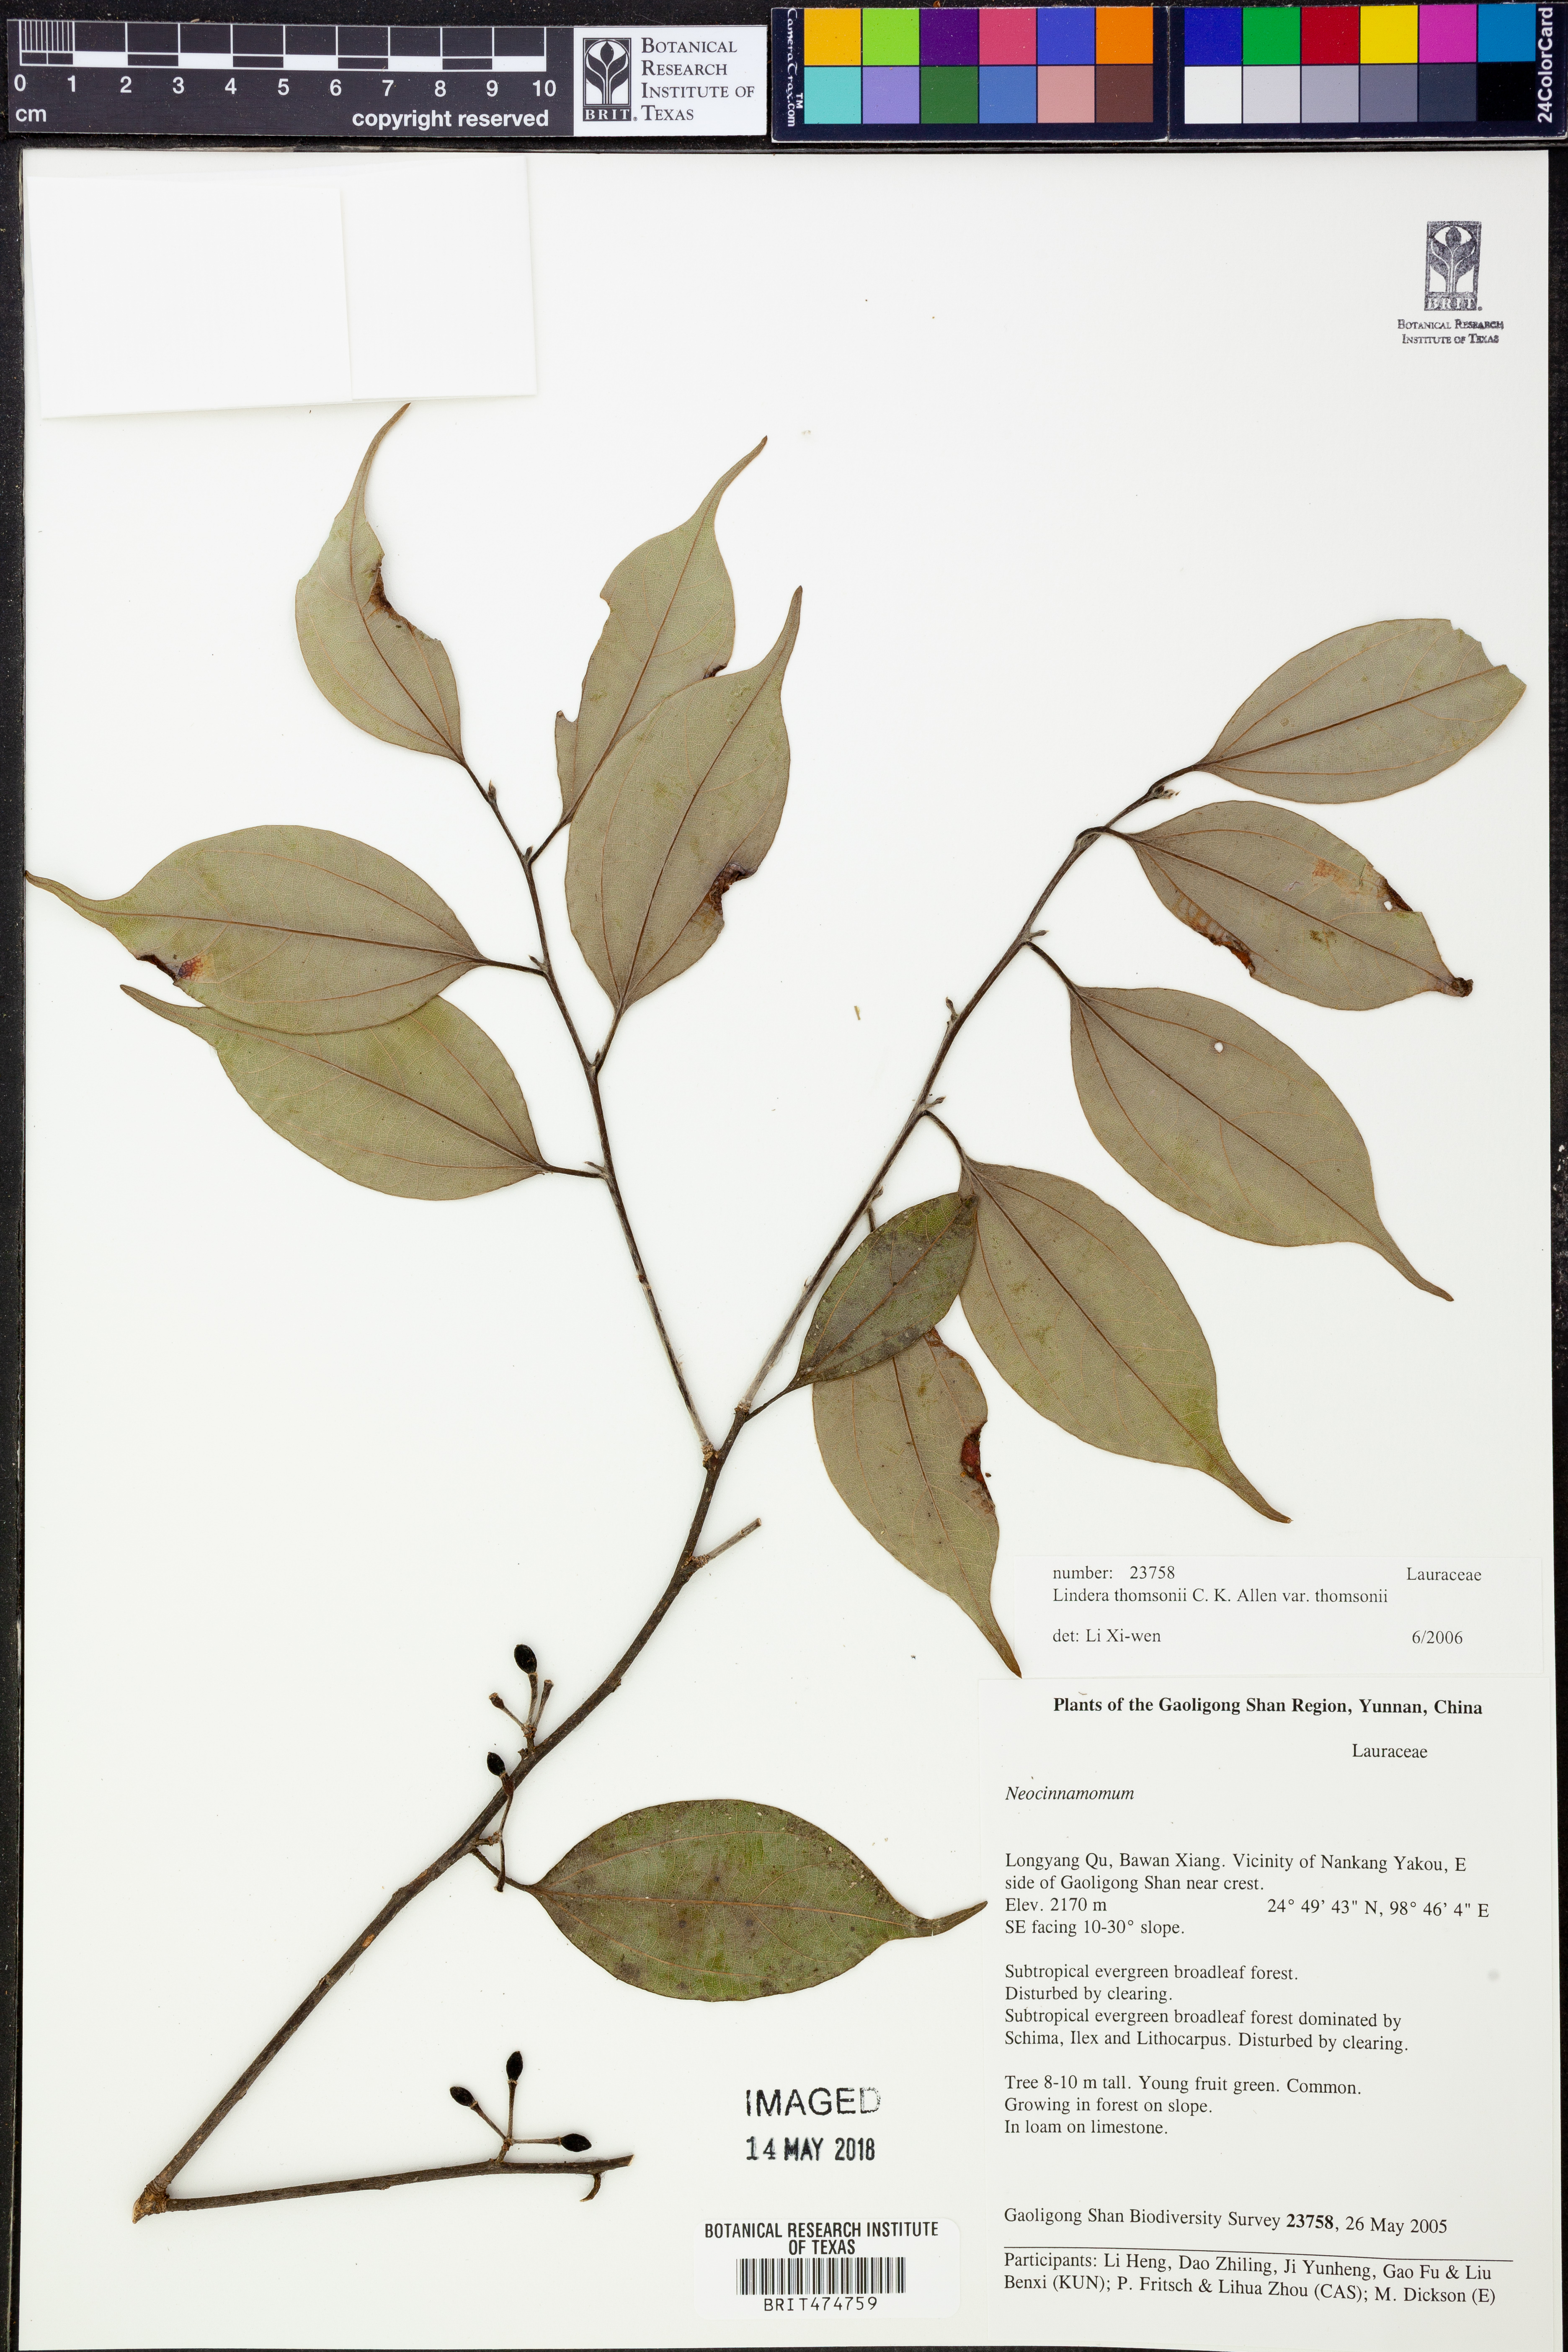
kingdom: Plantae
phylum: Tracheophyta
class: Magnoliopsida
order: Laurales
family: Lauraceae
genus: Lindera
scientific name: Lindera thomsonii
